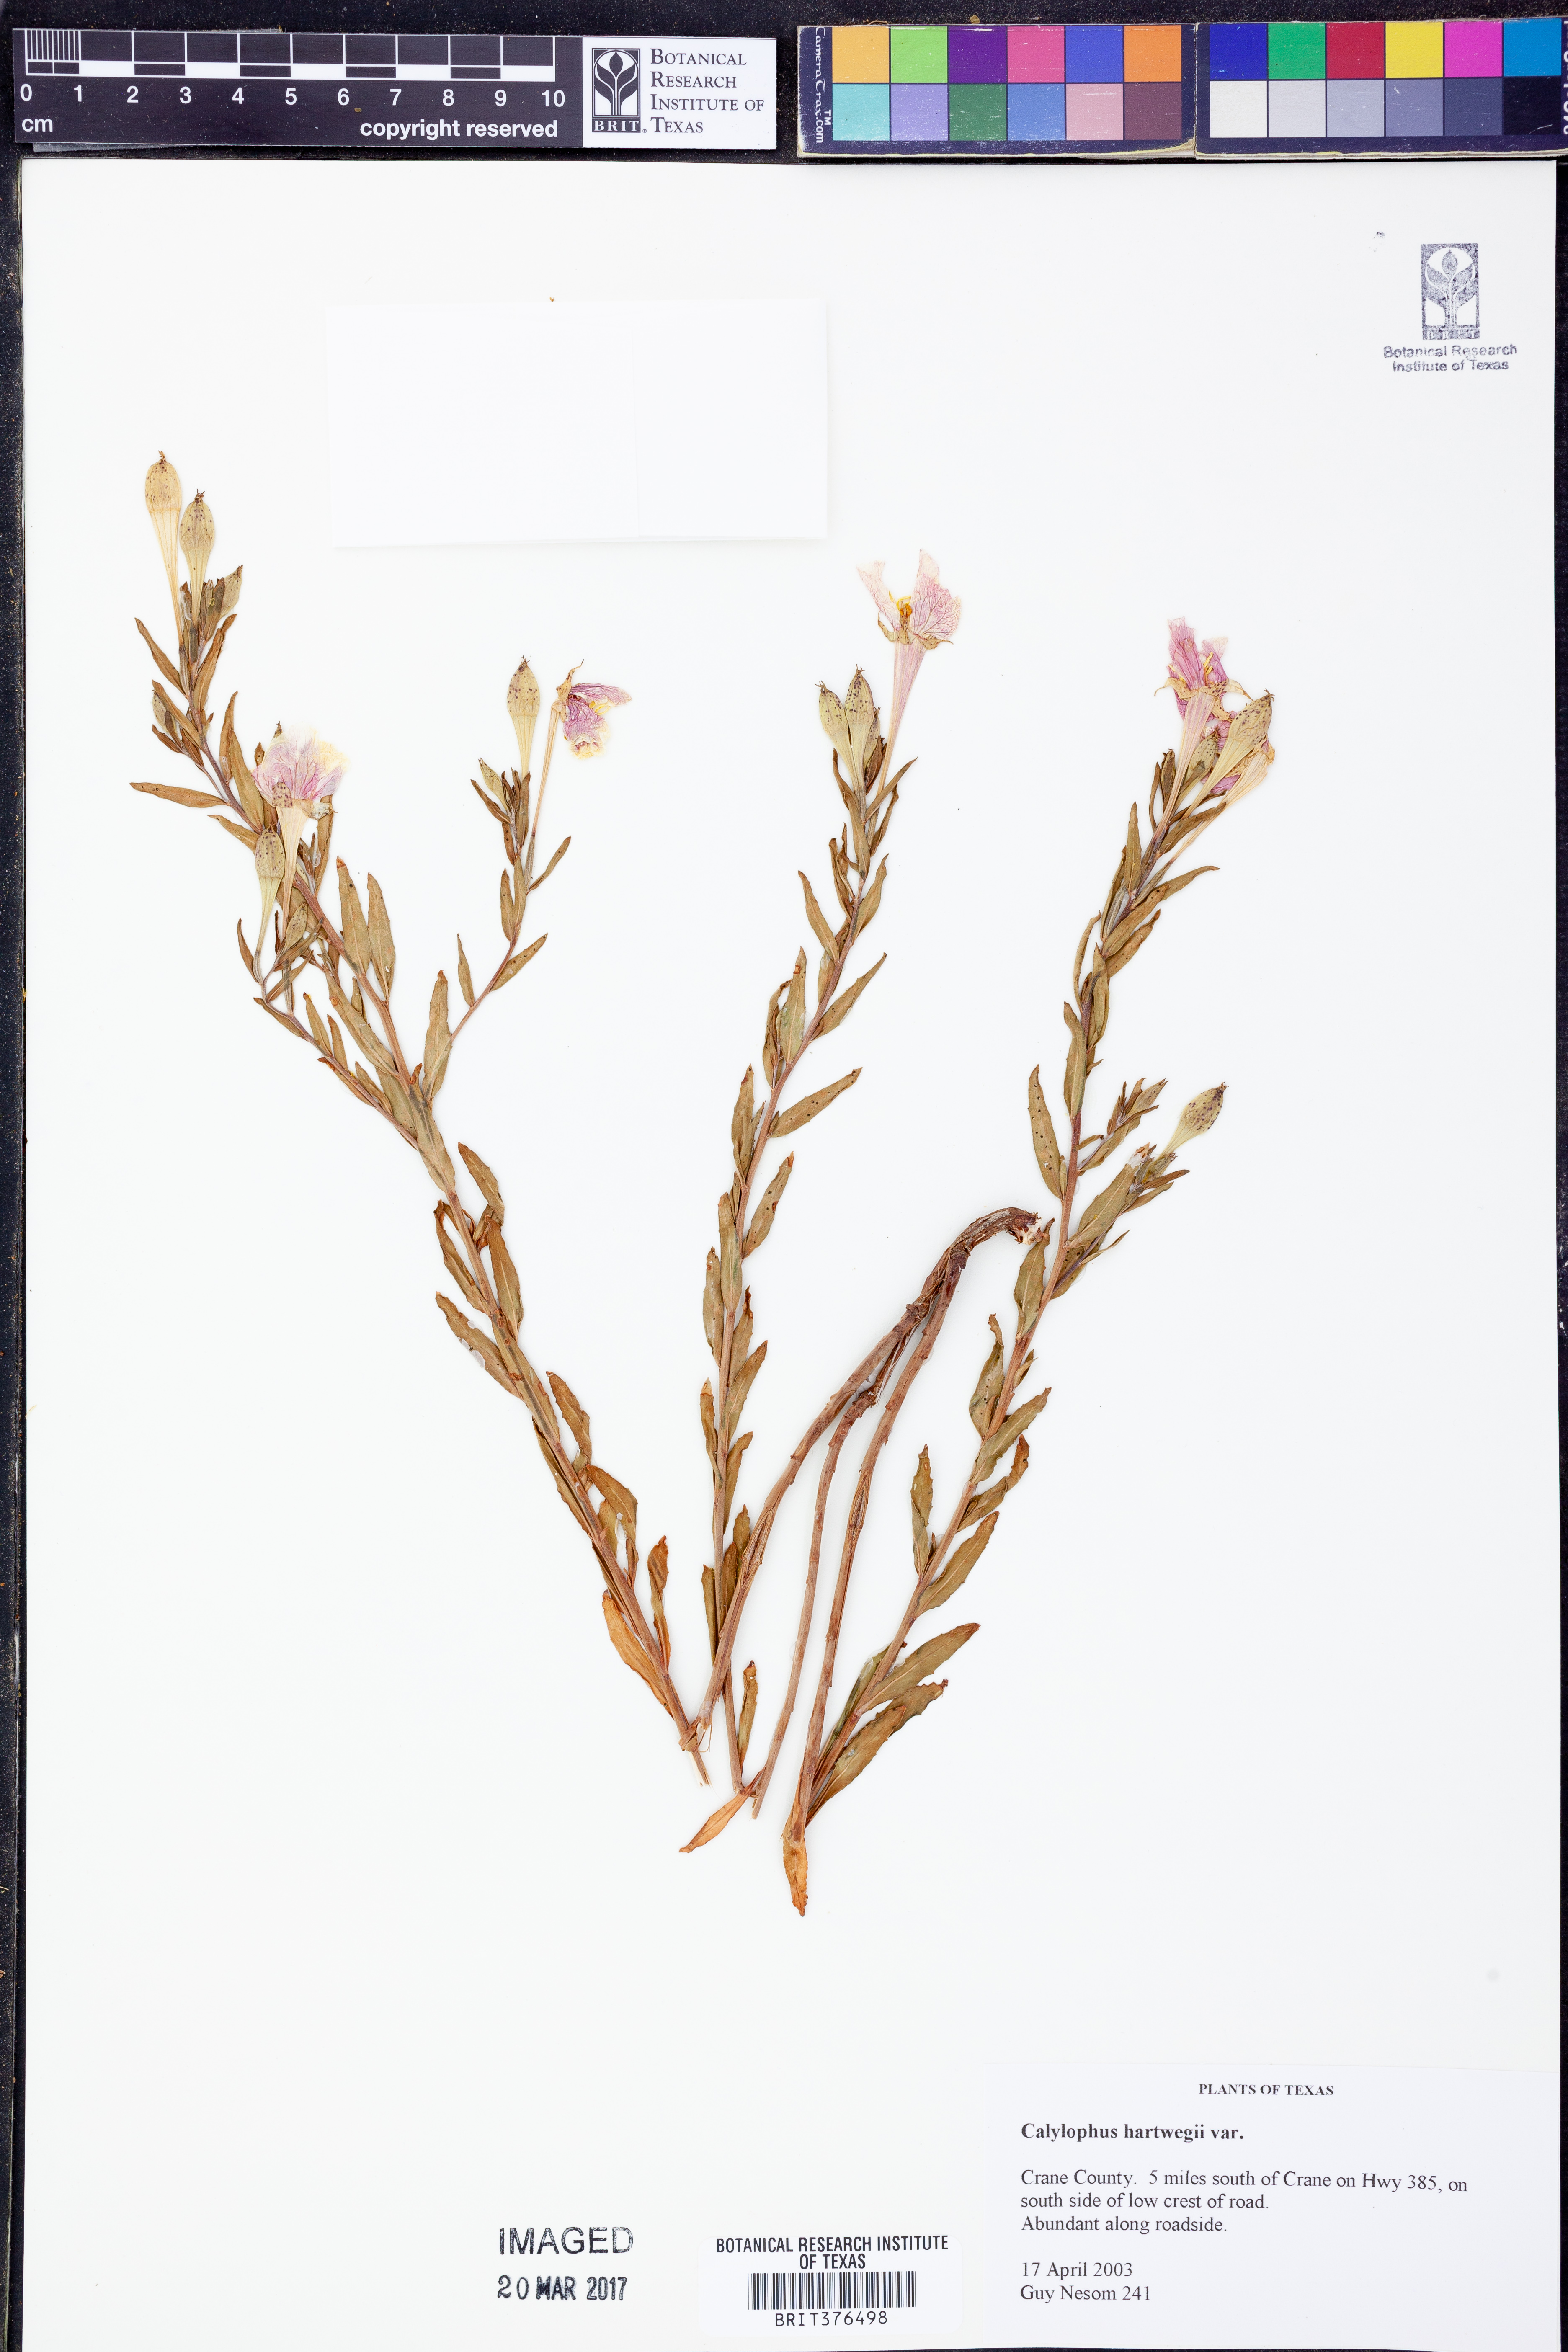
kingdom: Plantae
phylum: Tracheophyta
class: Magnoliopsida
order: Myrtales
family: Onagraceae
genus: Oenothera
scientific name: Oenothera hartwegii
